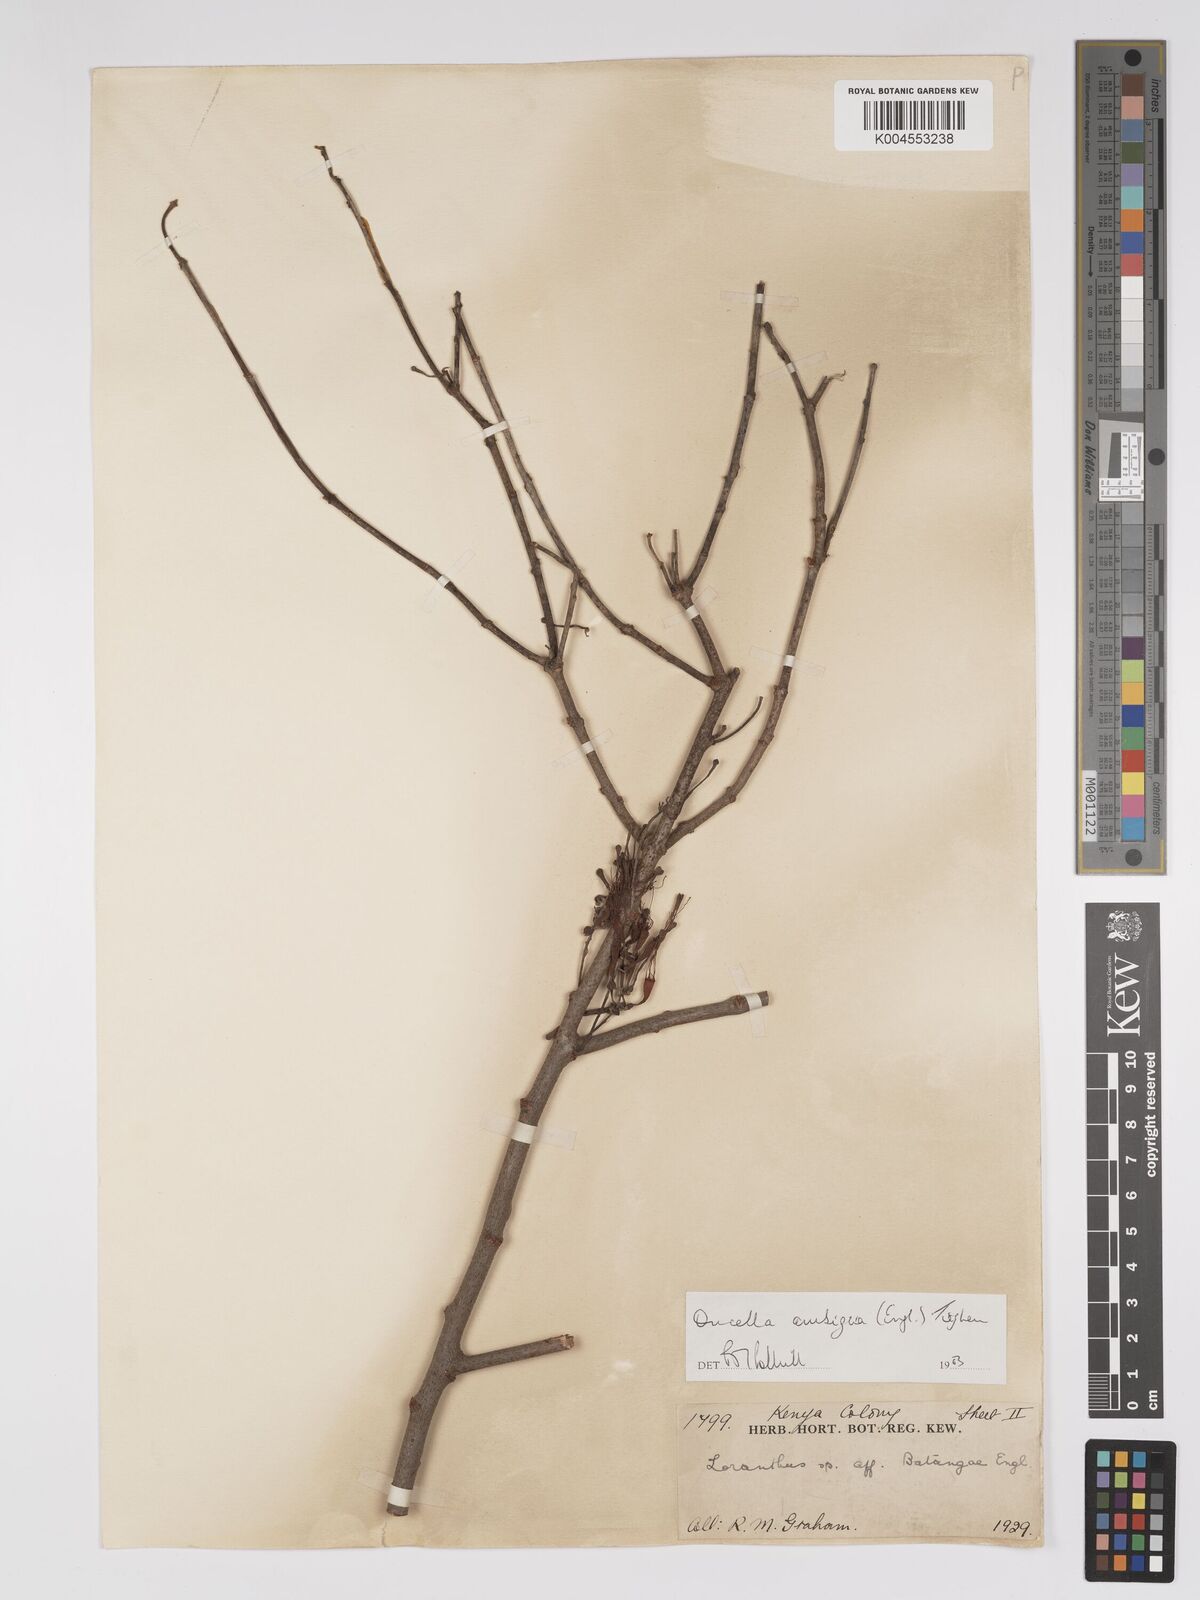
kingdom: Plantae
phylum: Tracheophyta
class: Magnoliopsida
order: Santalales
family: Loranthaceae
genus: Oncella
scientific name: Oncella ambigua
